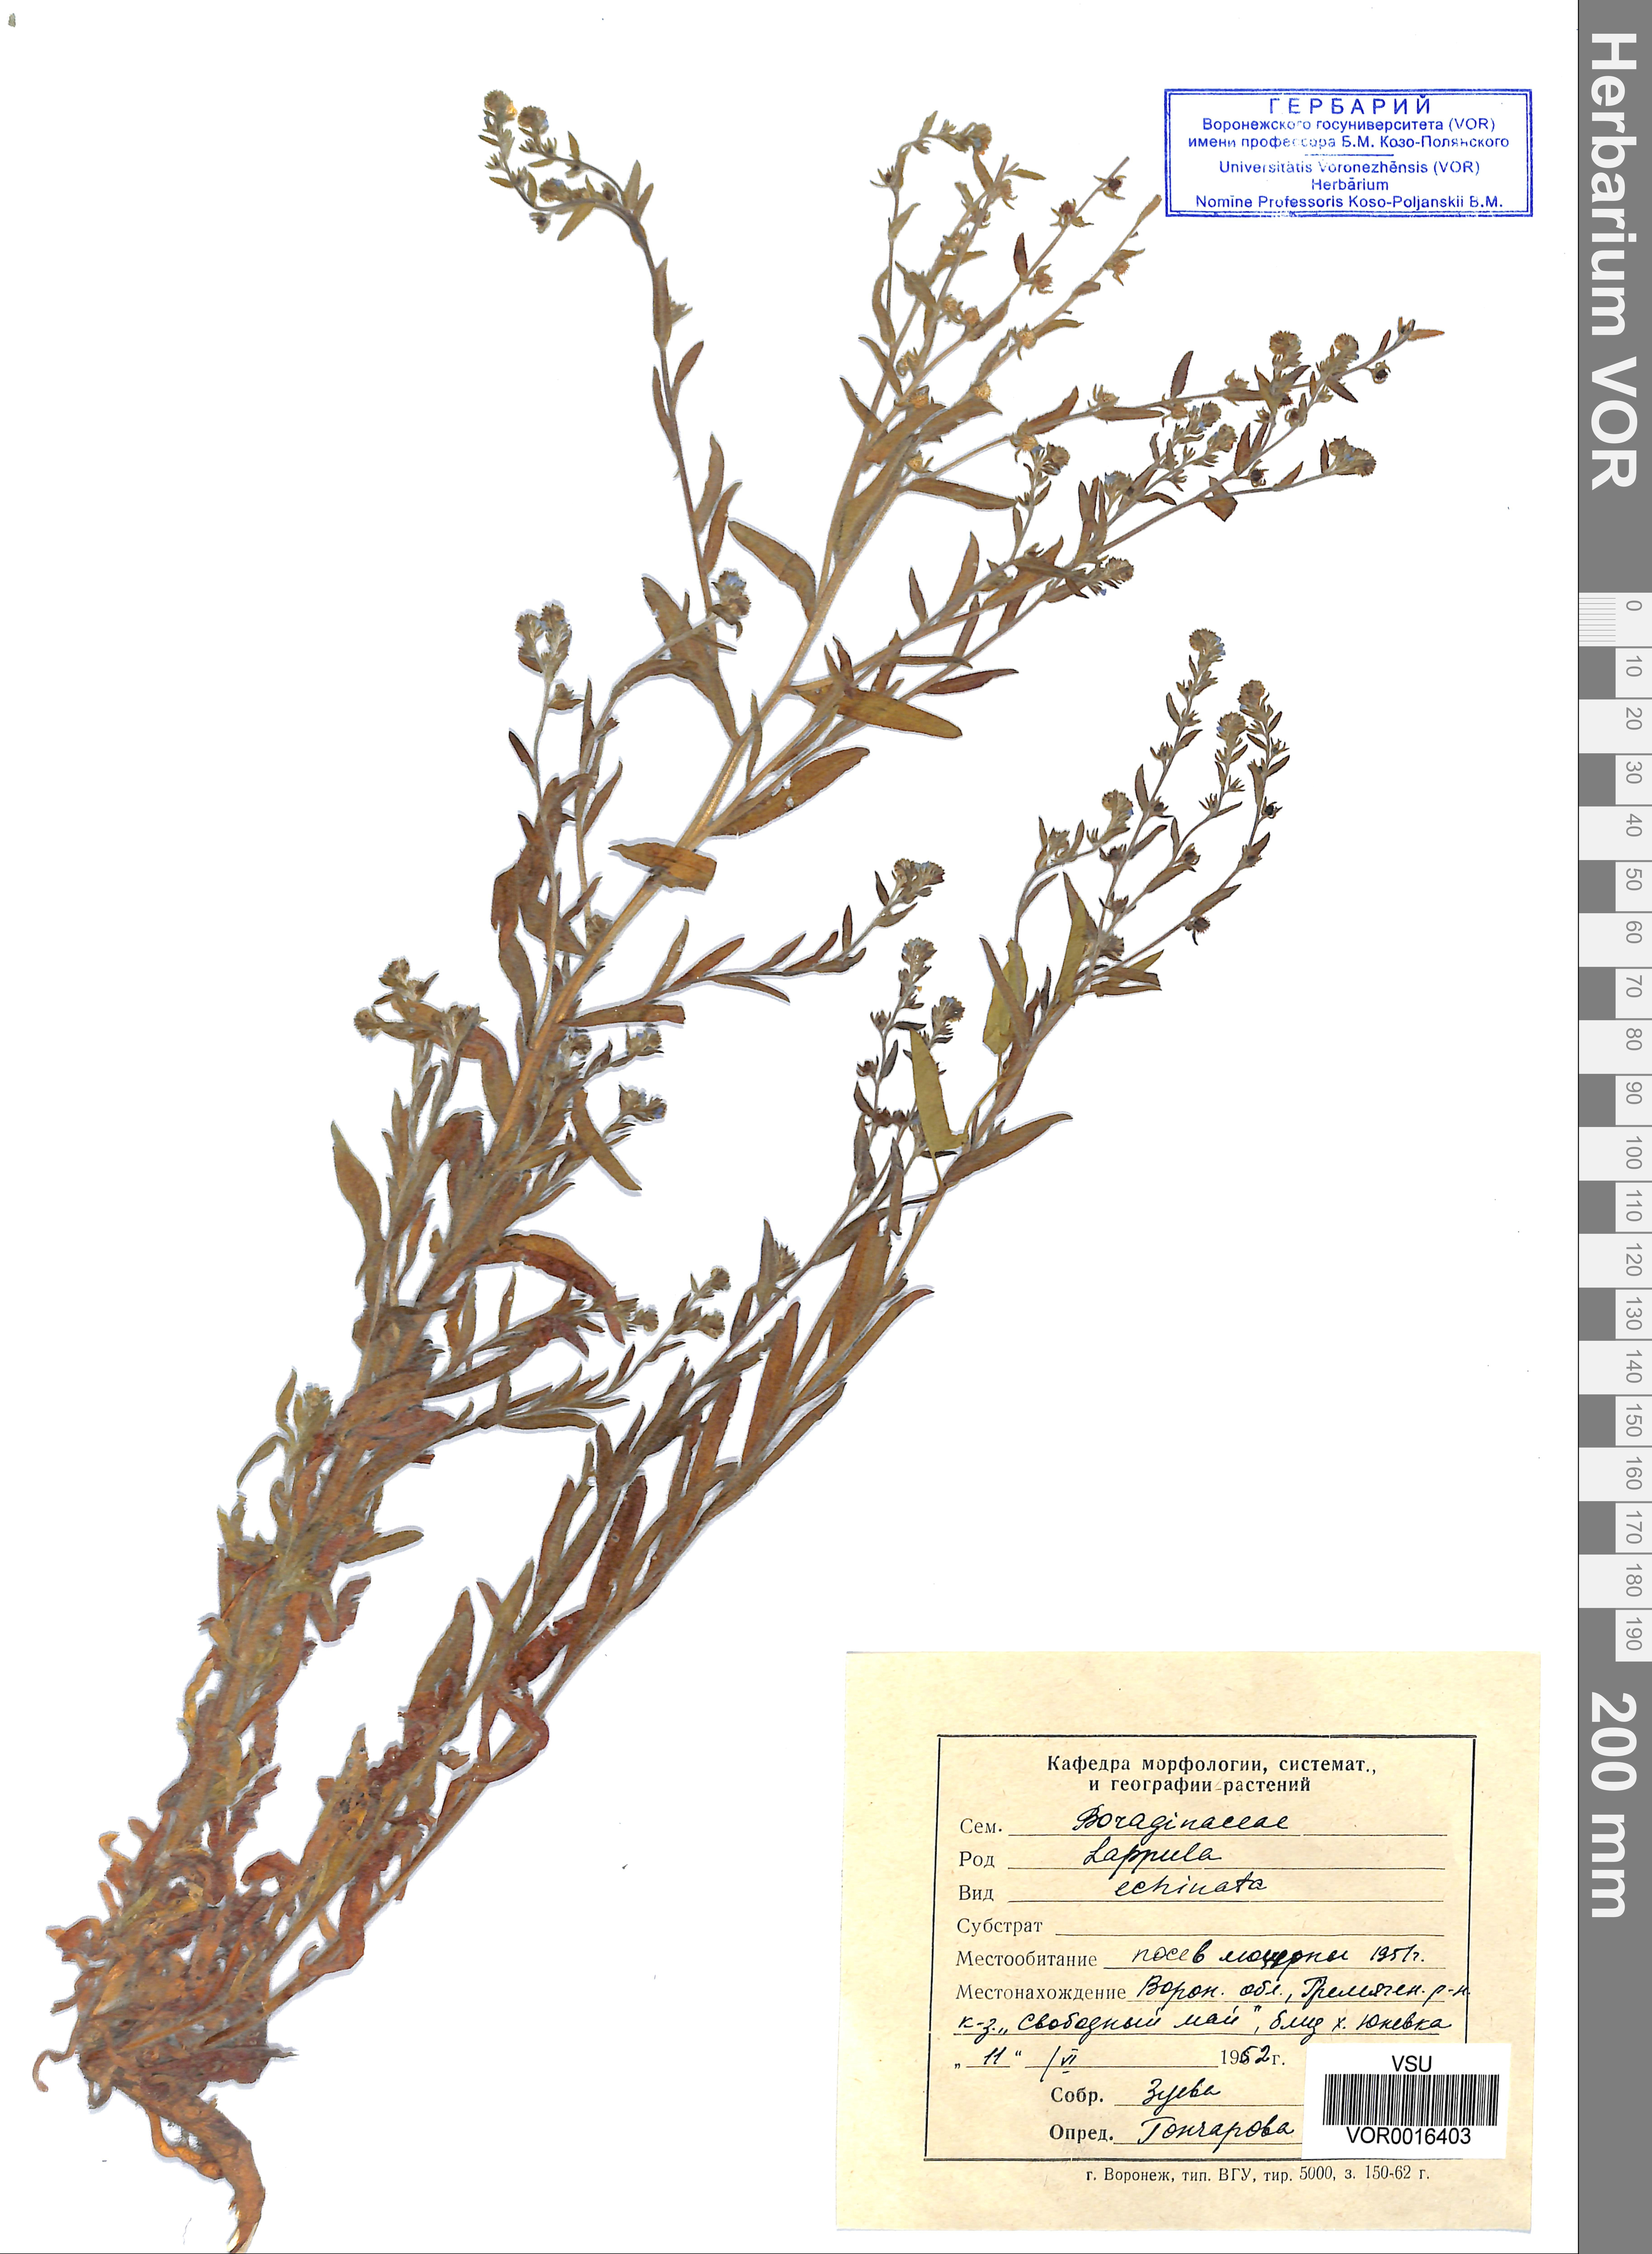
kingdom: Plantae
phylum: Tracheophyta
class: Magnoliopsida
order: Boraginales
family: Boraginaceae
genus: Lappula
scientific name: Lappula squarrosa
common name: European stickseed
